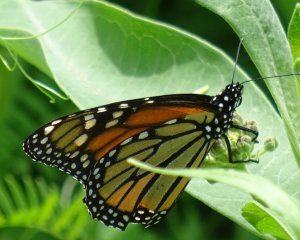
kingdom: Animalia
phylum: Arthropoda
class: Insecta
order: Lepidoptera
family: Nymphalidae
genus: Danaus
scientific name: Danaus plexippus
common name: Monarch
